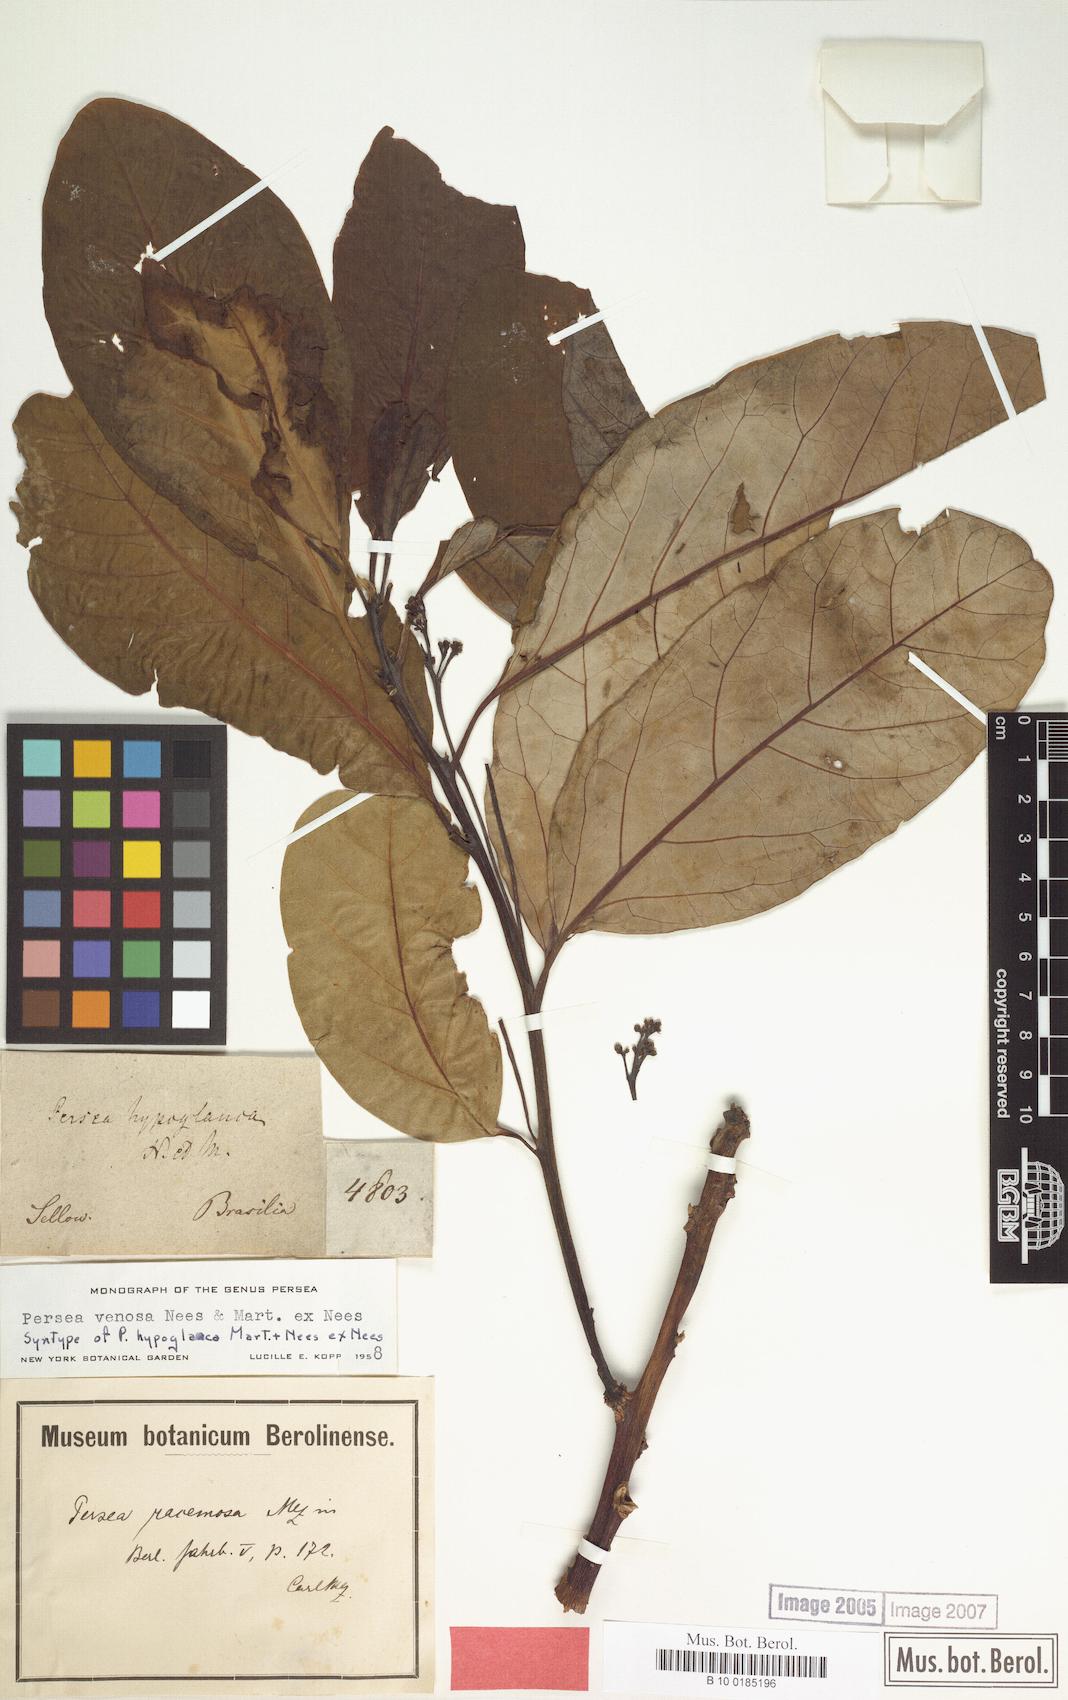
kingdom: Plantae
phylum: Tracheophyta
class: Magnoliopsida
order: Laurales
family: Lauraceae
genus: Persea
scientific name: Persea venosa
